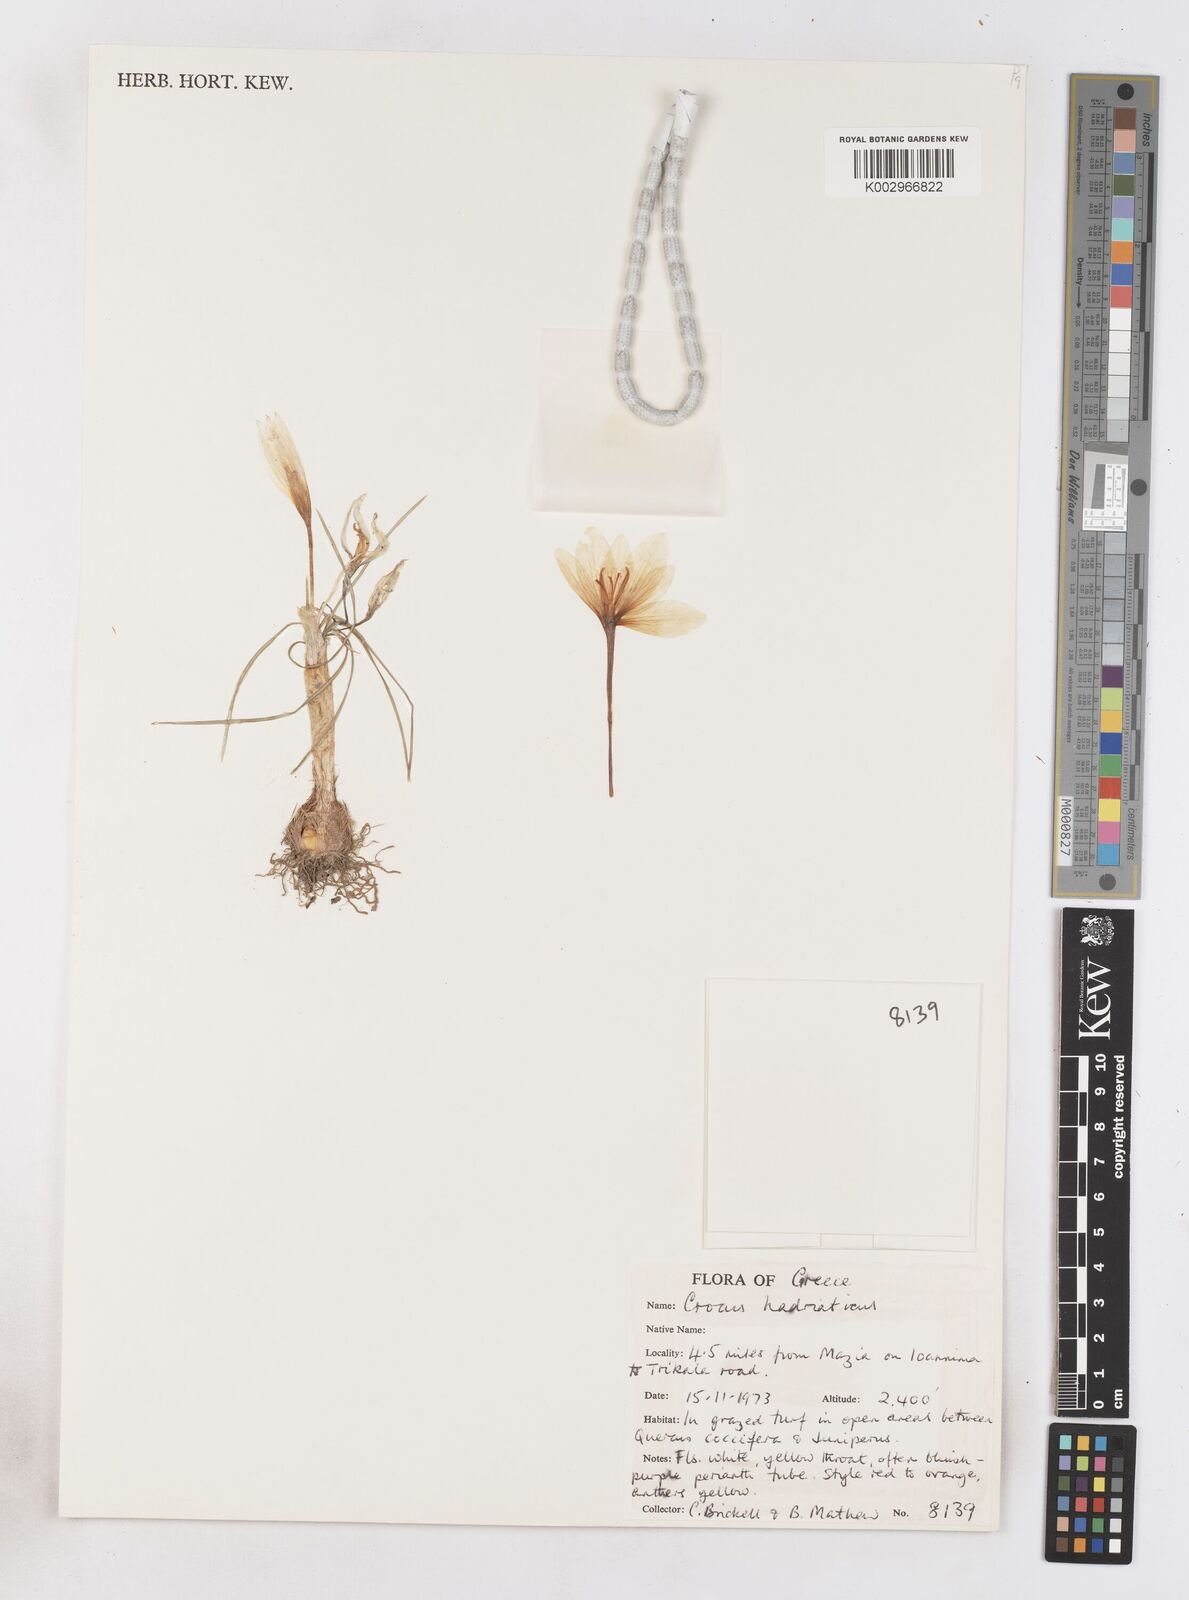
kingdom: Plantae
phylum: Tracheophyta
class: Liliopsida
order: Asparagales
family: Iridaceae
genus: Crocus
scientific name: Crocus hadriaticus
